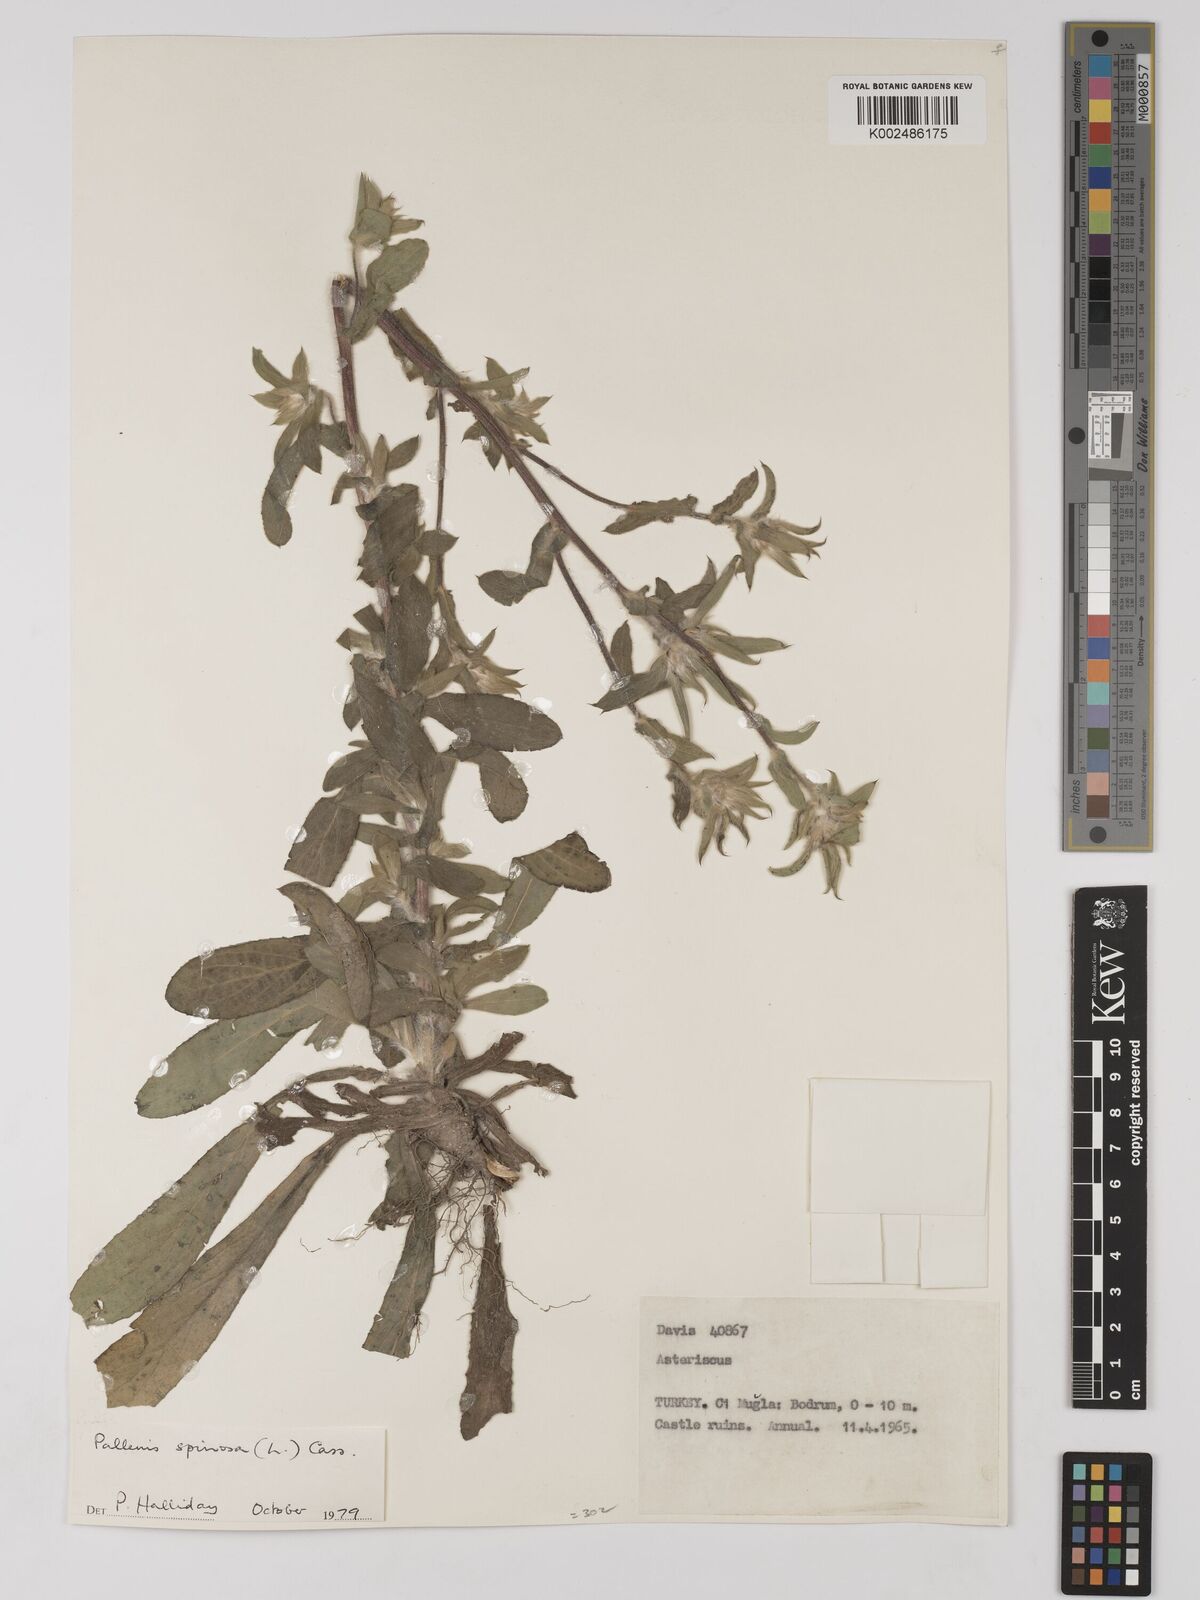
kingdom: Plantae
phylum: Tracheophyta
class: Magnoliopsida
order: Asterales
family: Asteraceae
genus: Pallenis
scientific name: Pallenis spinosa
